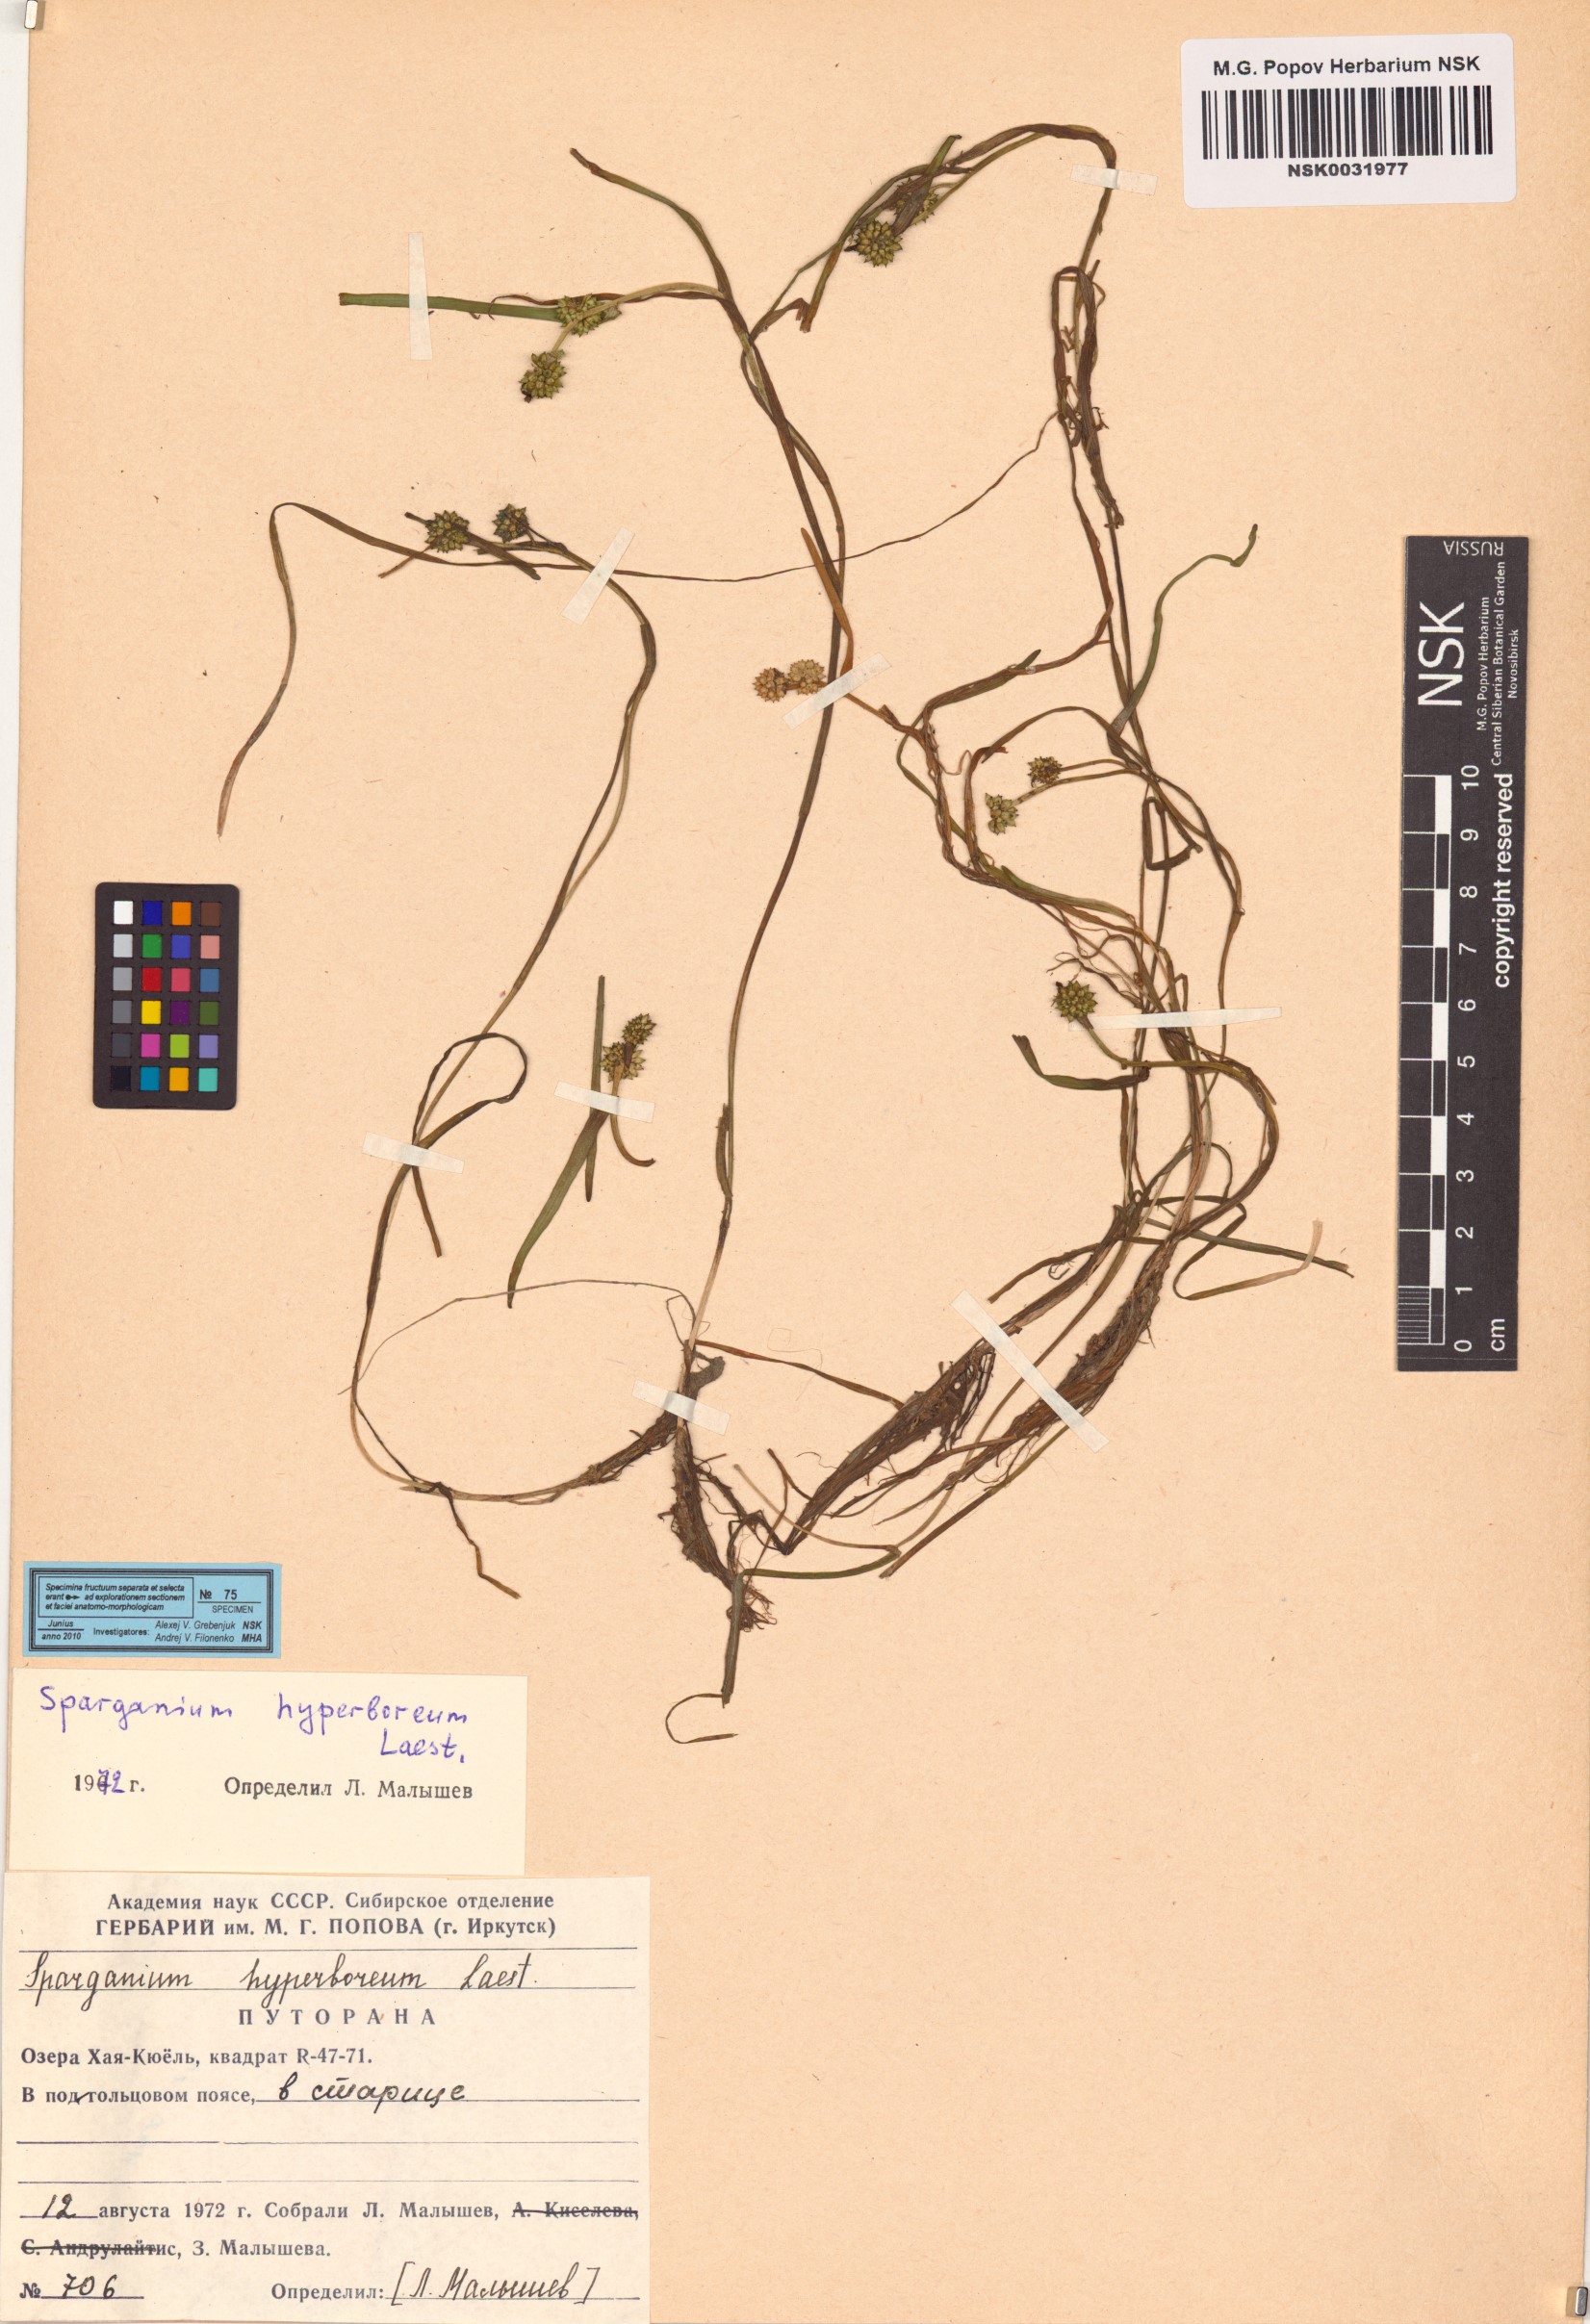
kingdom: Plantae
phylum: Tracheophyta
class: Liliopsida
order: Poales
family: Typhaceae
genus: Sparganium
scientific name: Sparganium hyperboreum
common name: Arctic burreed
